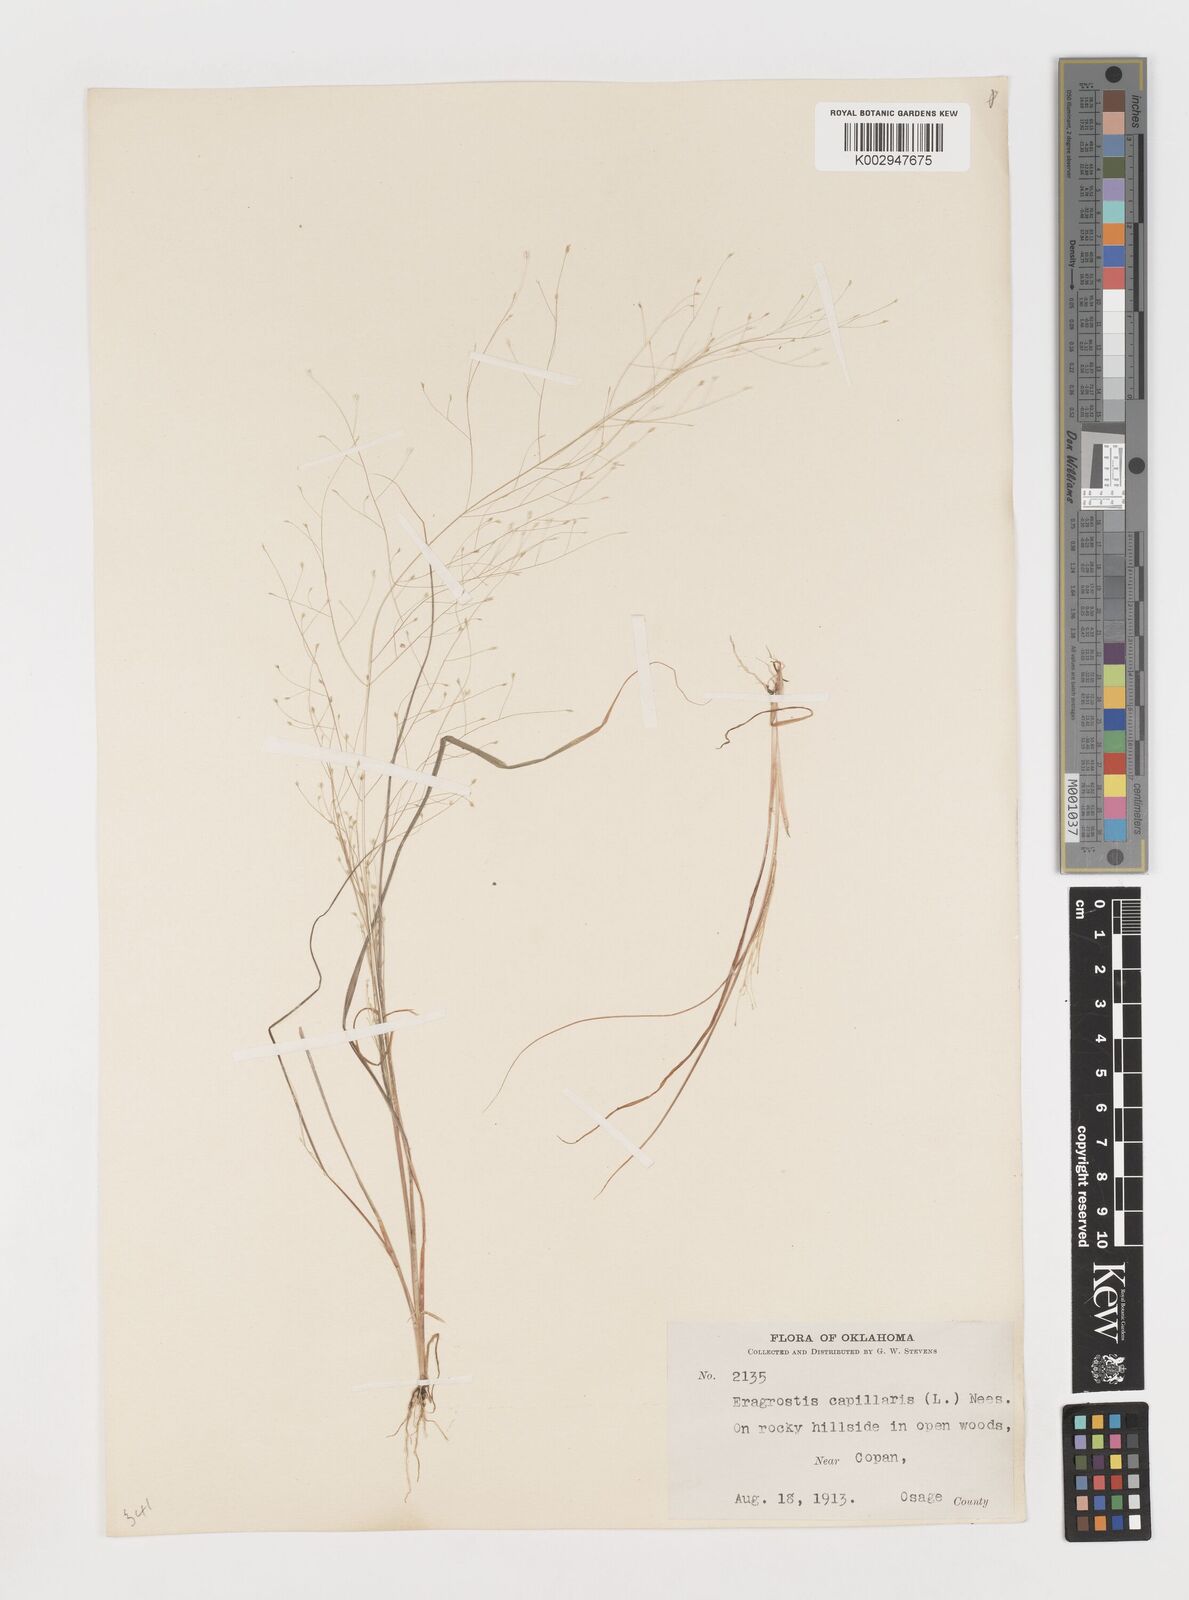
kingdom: Plantae
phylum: Tracheophyta
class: Liliopsida
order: Poales
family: Poaceae
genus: Eragrostis
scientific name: Eragrostis capillaris
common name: Hair-like lovegrass
